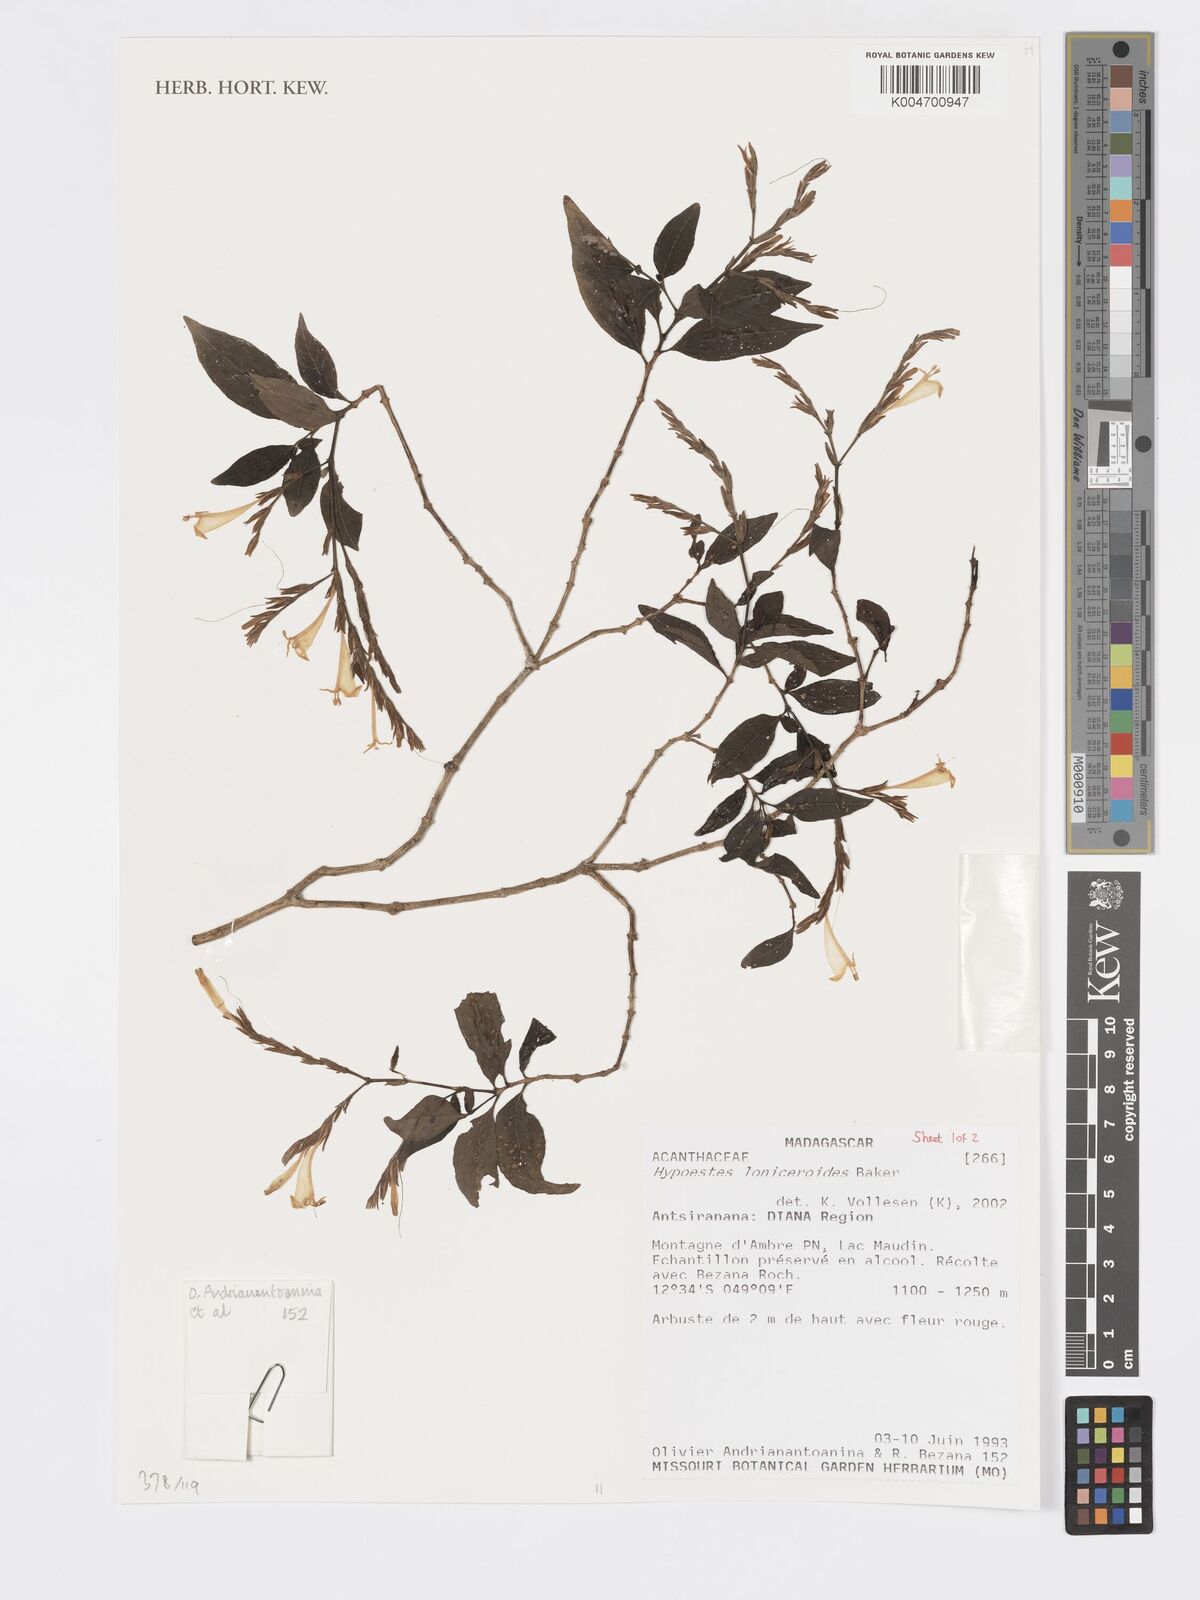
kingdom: Plantae
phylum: Tracheophyta
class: Magnoliopsida
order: Lamiales
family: Acanthaceae
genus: Hypoestes
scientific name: Hypoestes
